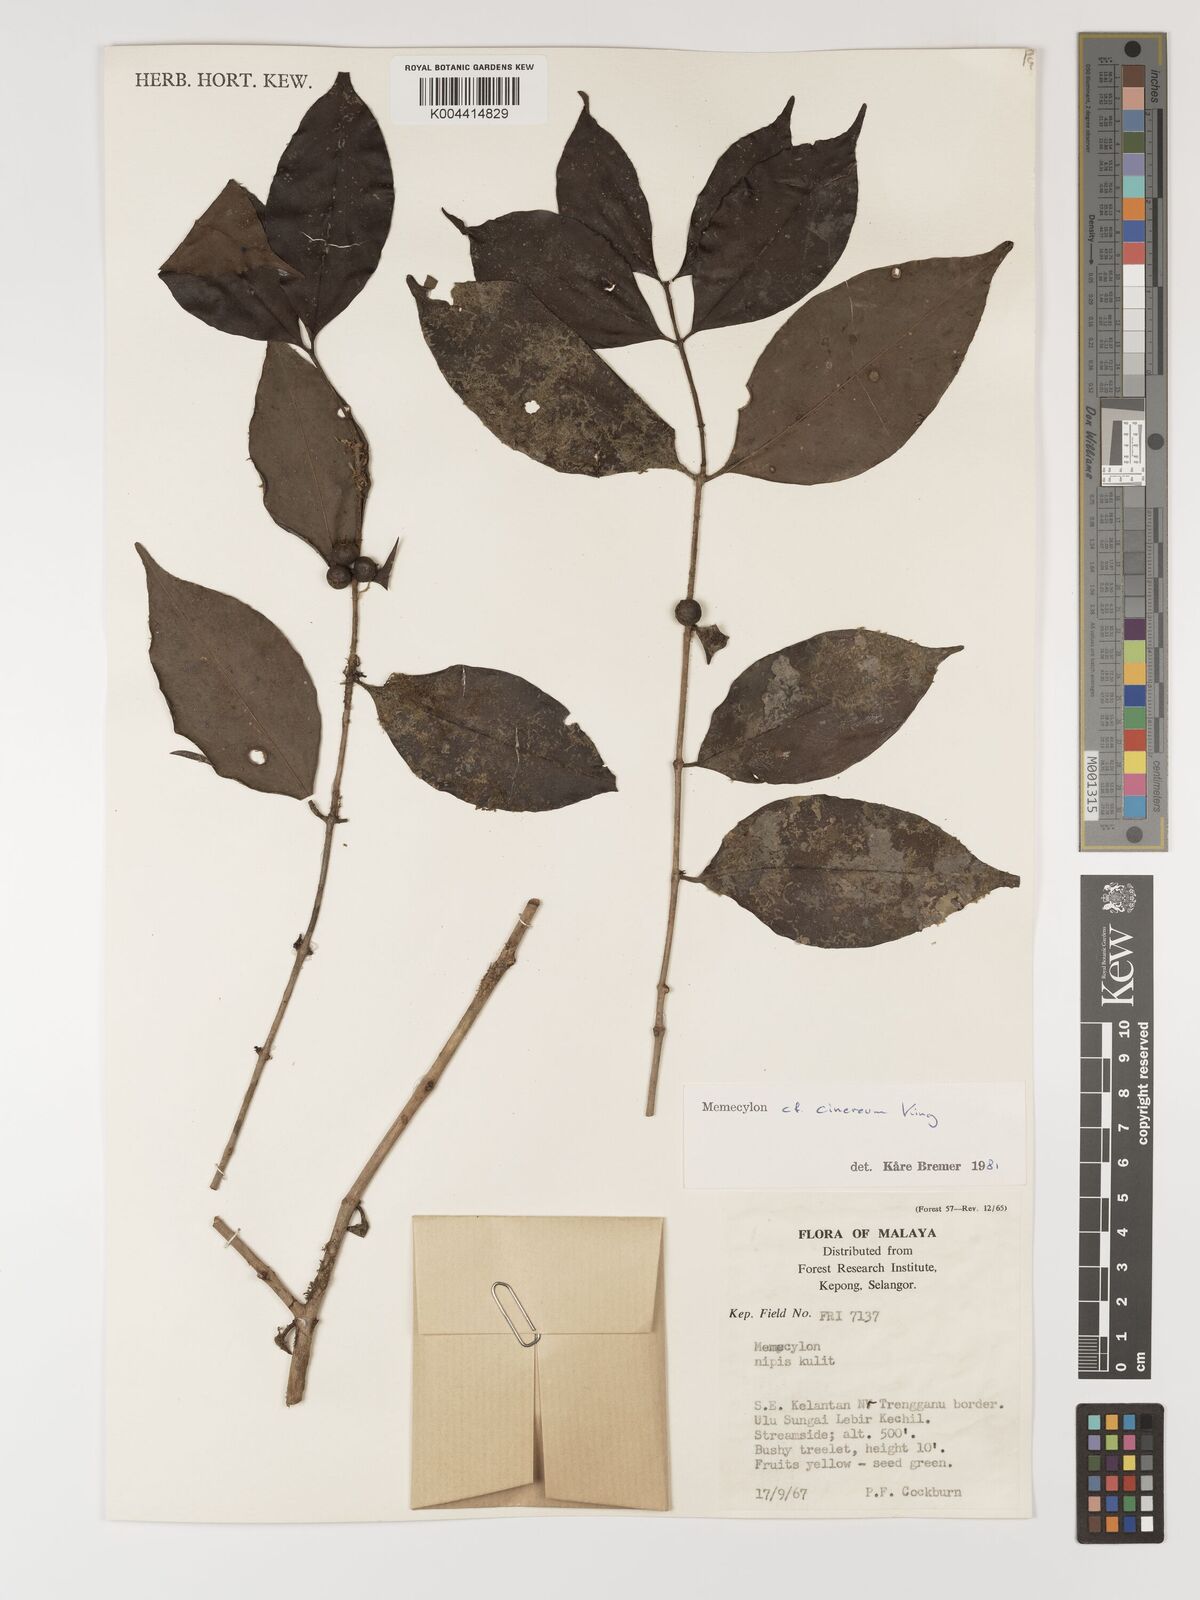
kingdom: Plantae
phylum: Tracheophyta
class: Magnoliopsida
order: Myrtales
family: Melastomataceae
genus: Memecylon
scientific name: Memecylon cinereum
